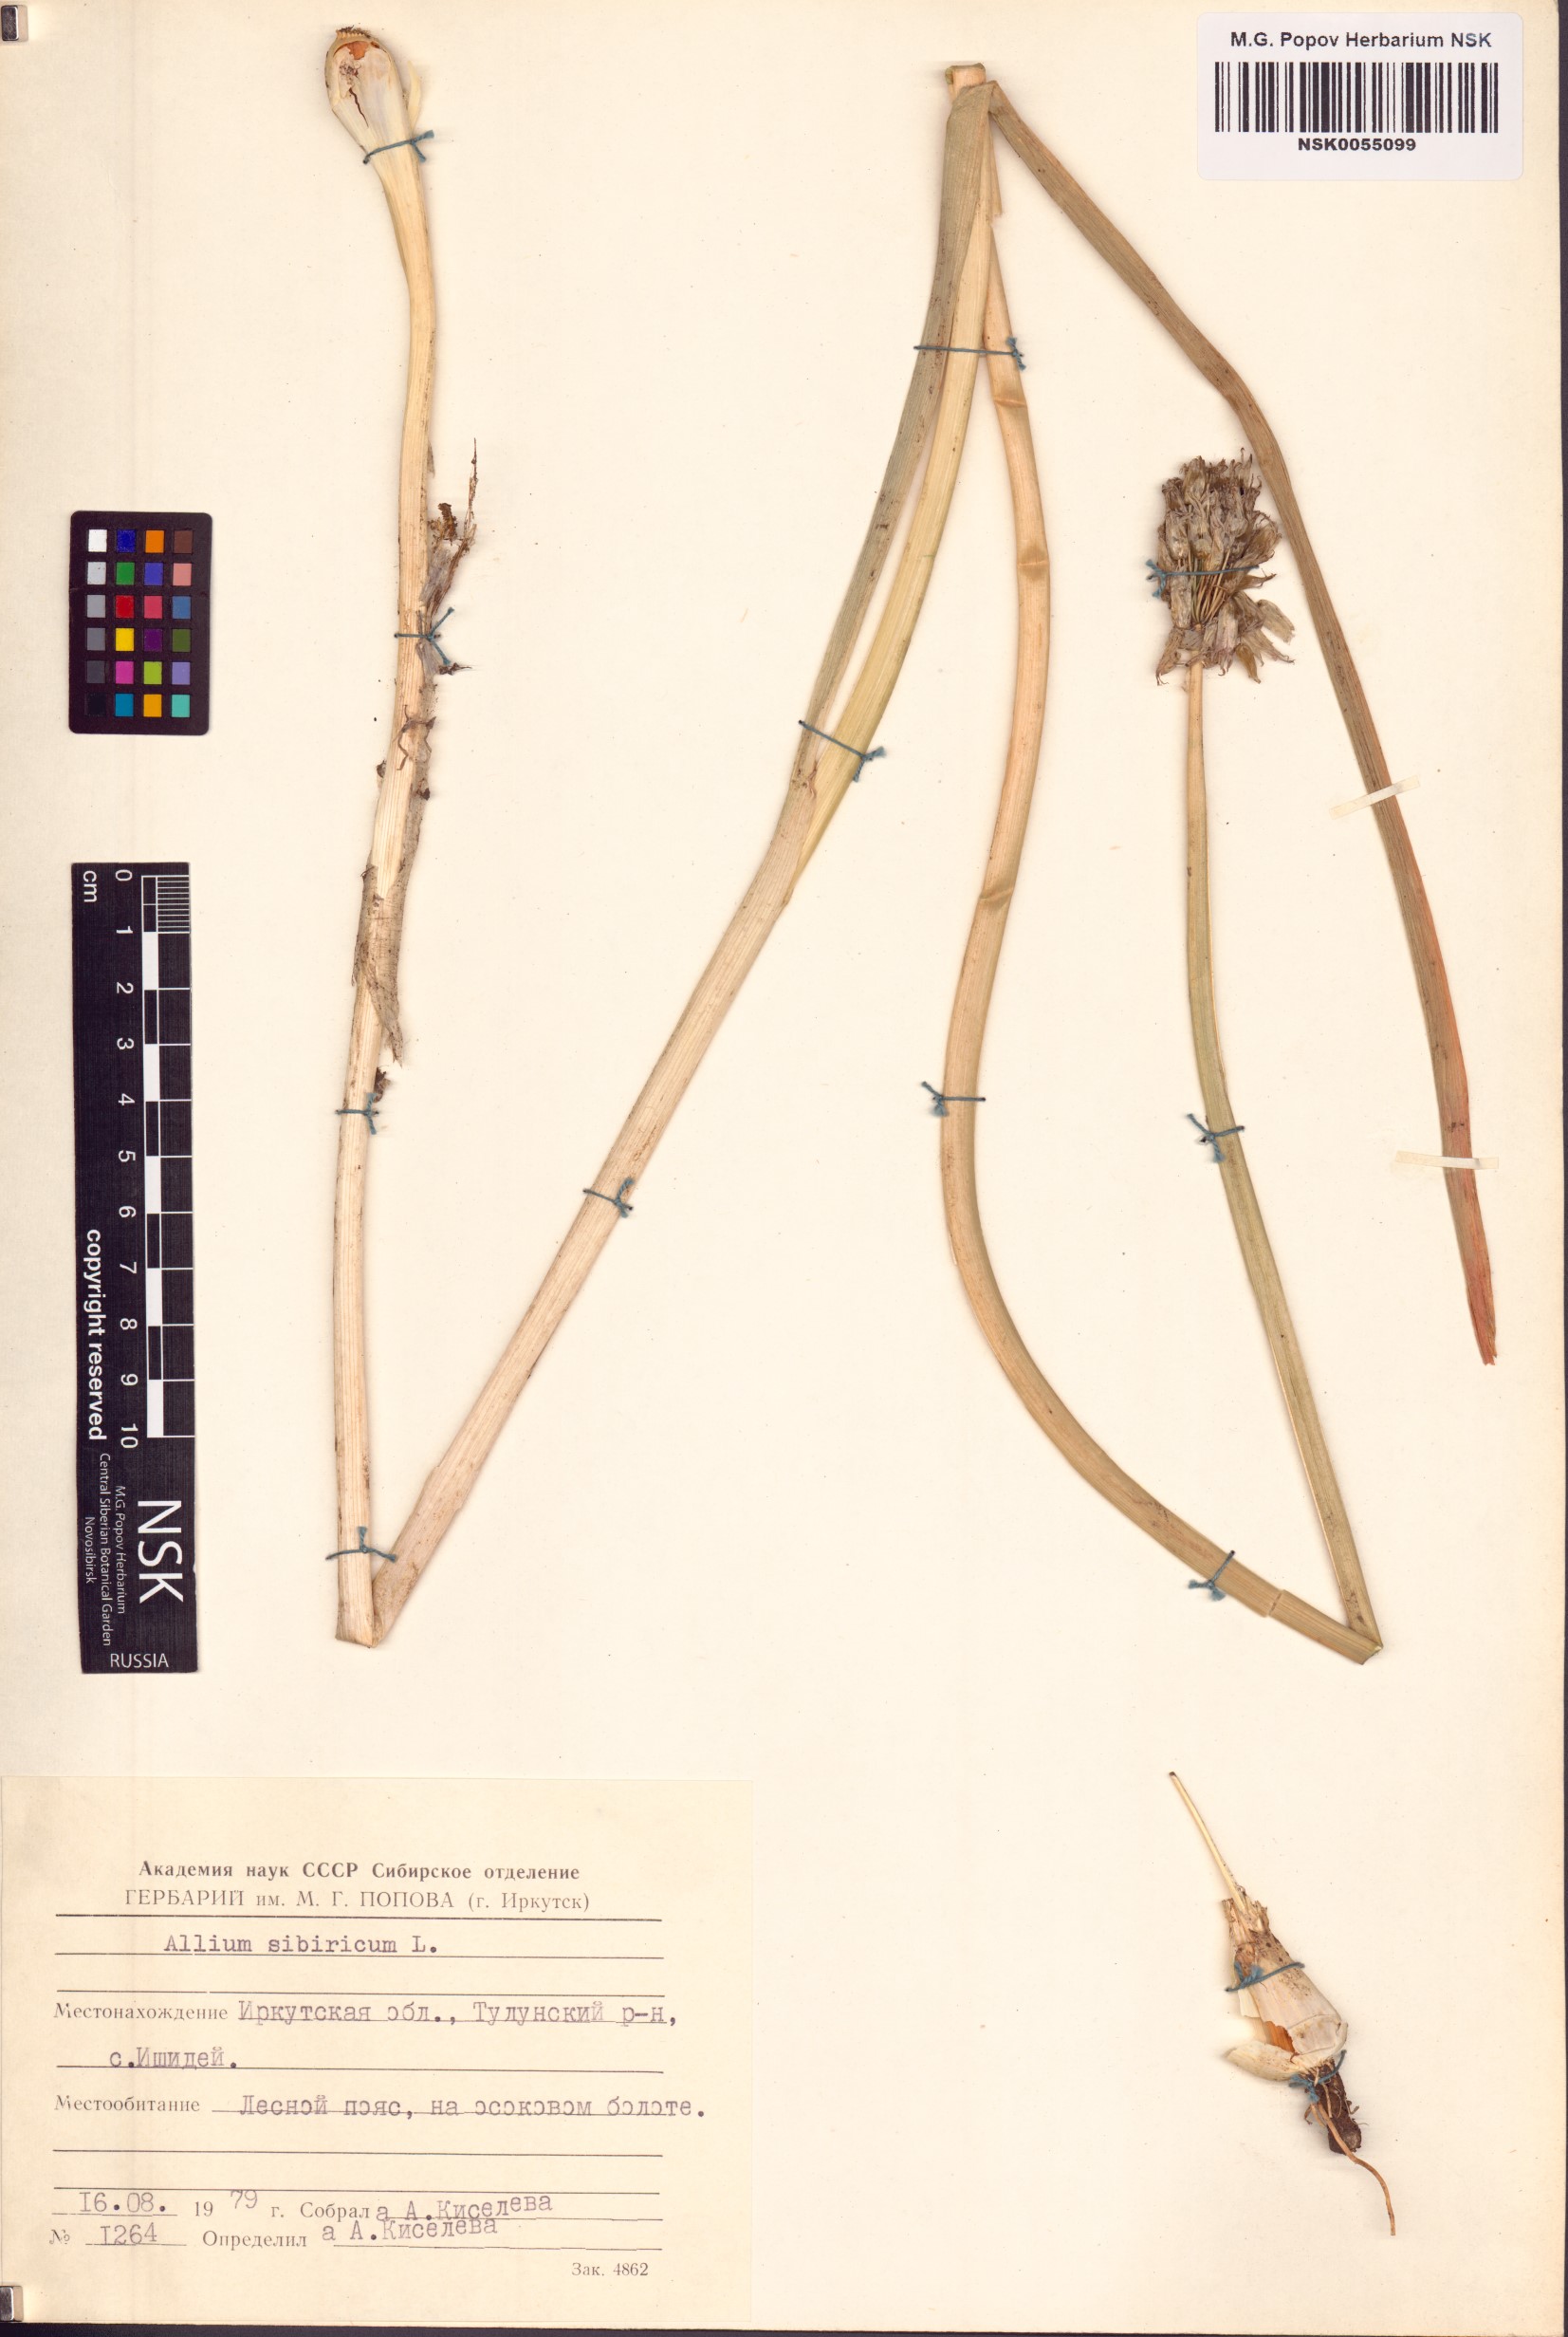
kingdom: Plantae
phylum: Tracheophyta
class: Liliopsida
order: Asparagales
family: Amaryllidaceae
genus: Allium
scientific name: Allium schoenoprasum
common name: Chives
